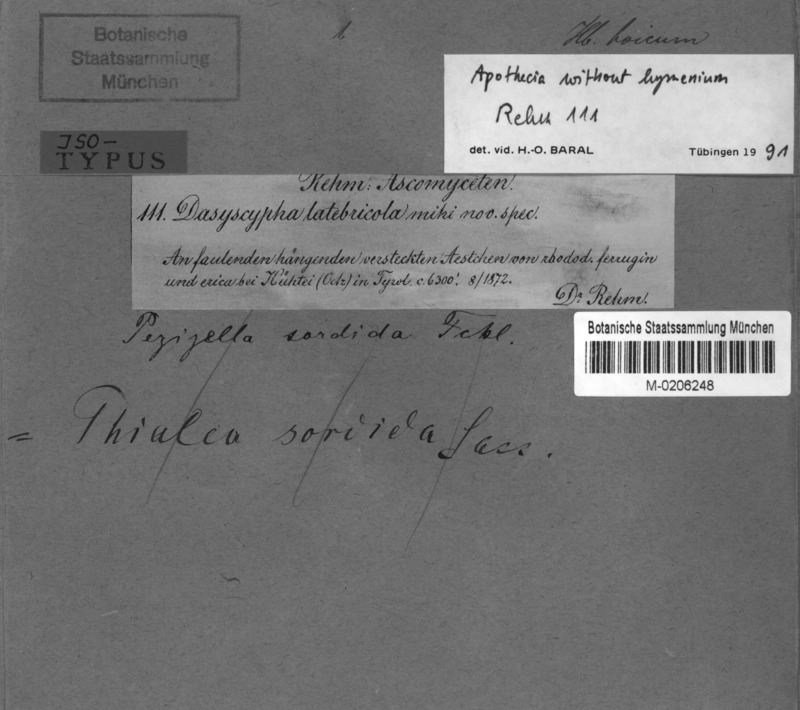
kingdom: Fungi
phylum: Ascomycota
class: Leotiomycetes
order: Helotiales
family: Lachnaceae
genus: Lachnum
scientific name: Lachnum latebricola
